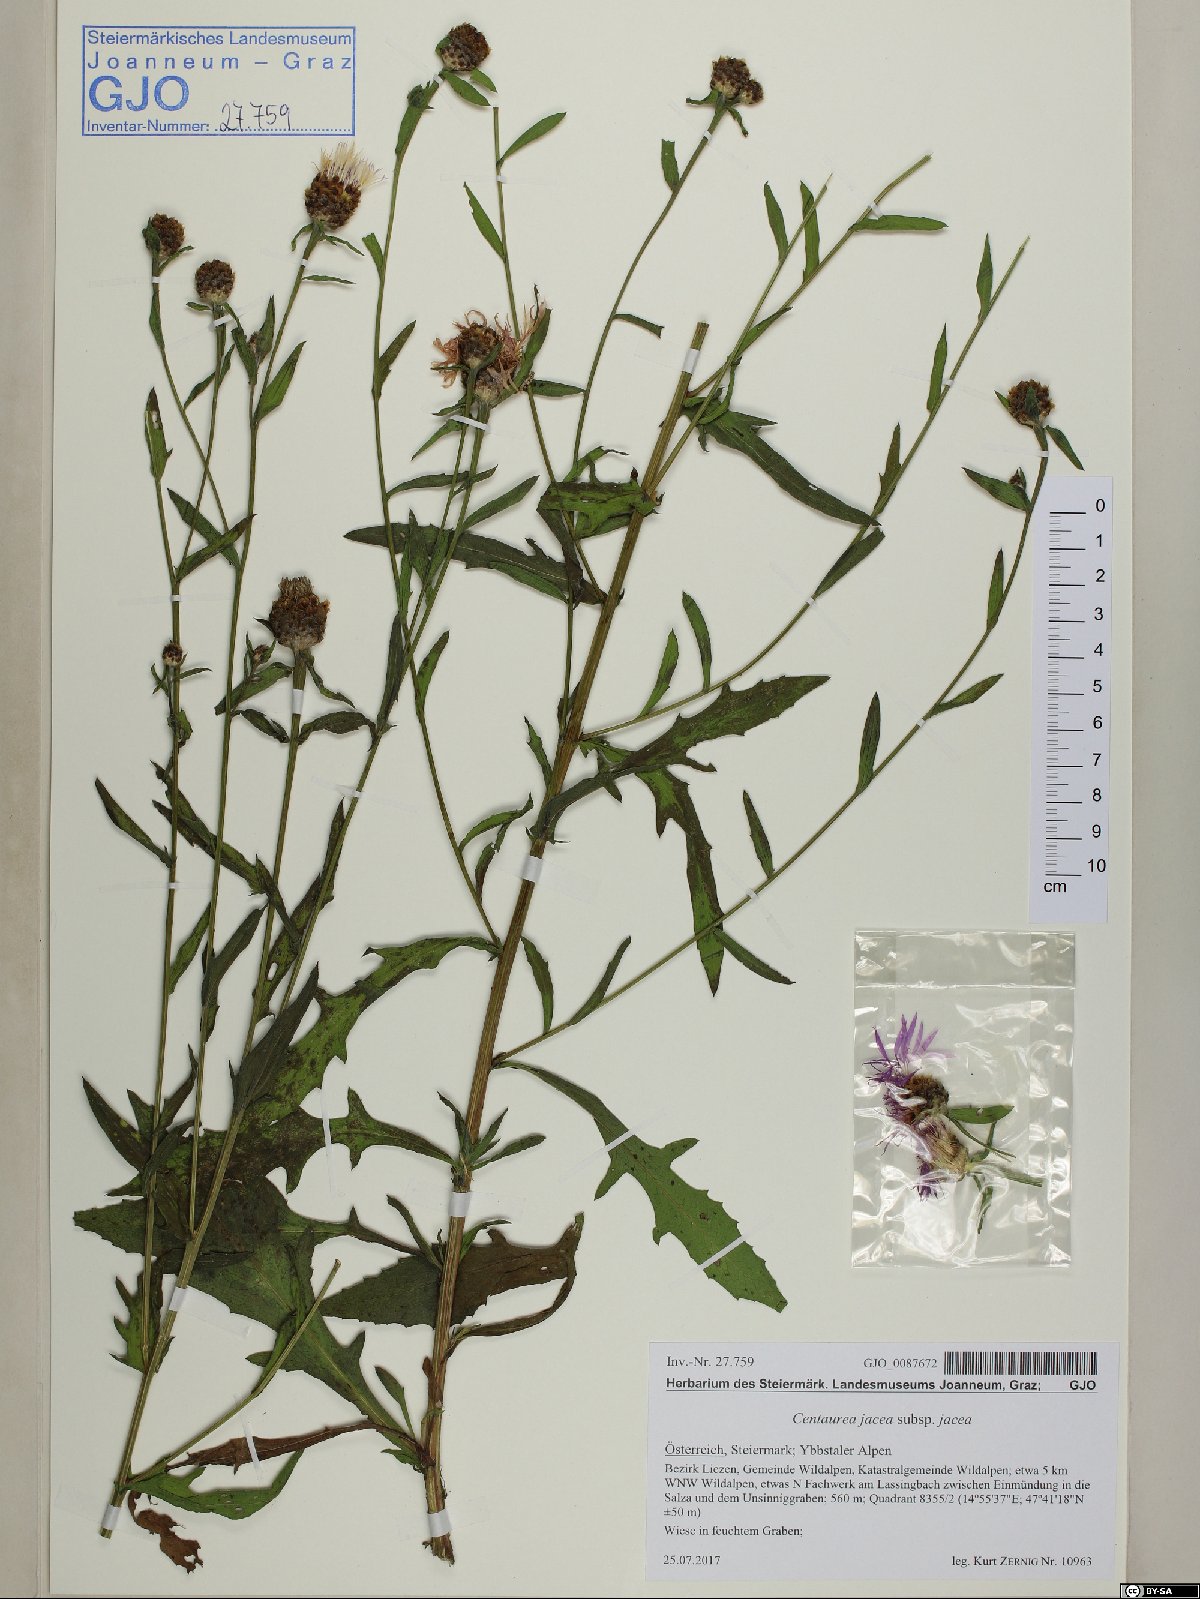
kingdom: Plantae
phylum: Tracheophyta
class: Magnoliopsida
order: Asterales
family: Asteraceae
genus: Centaurea
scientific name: Centaurea jacea
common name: Brown knapweed
